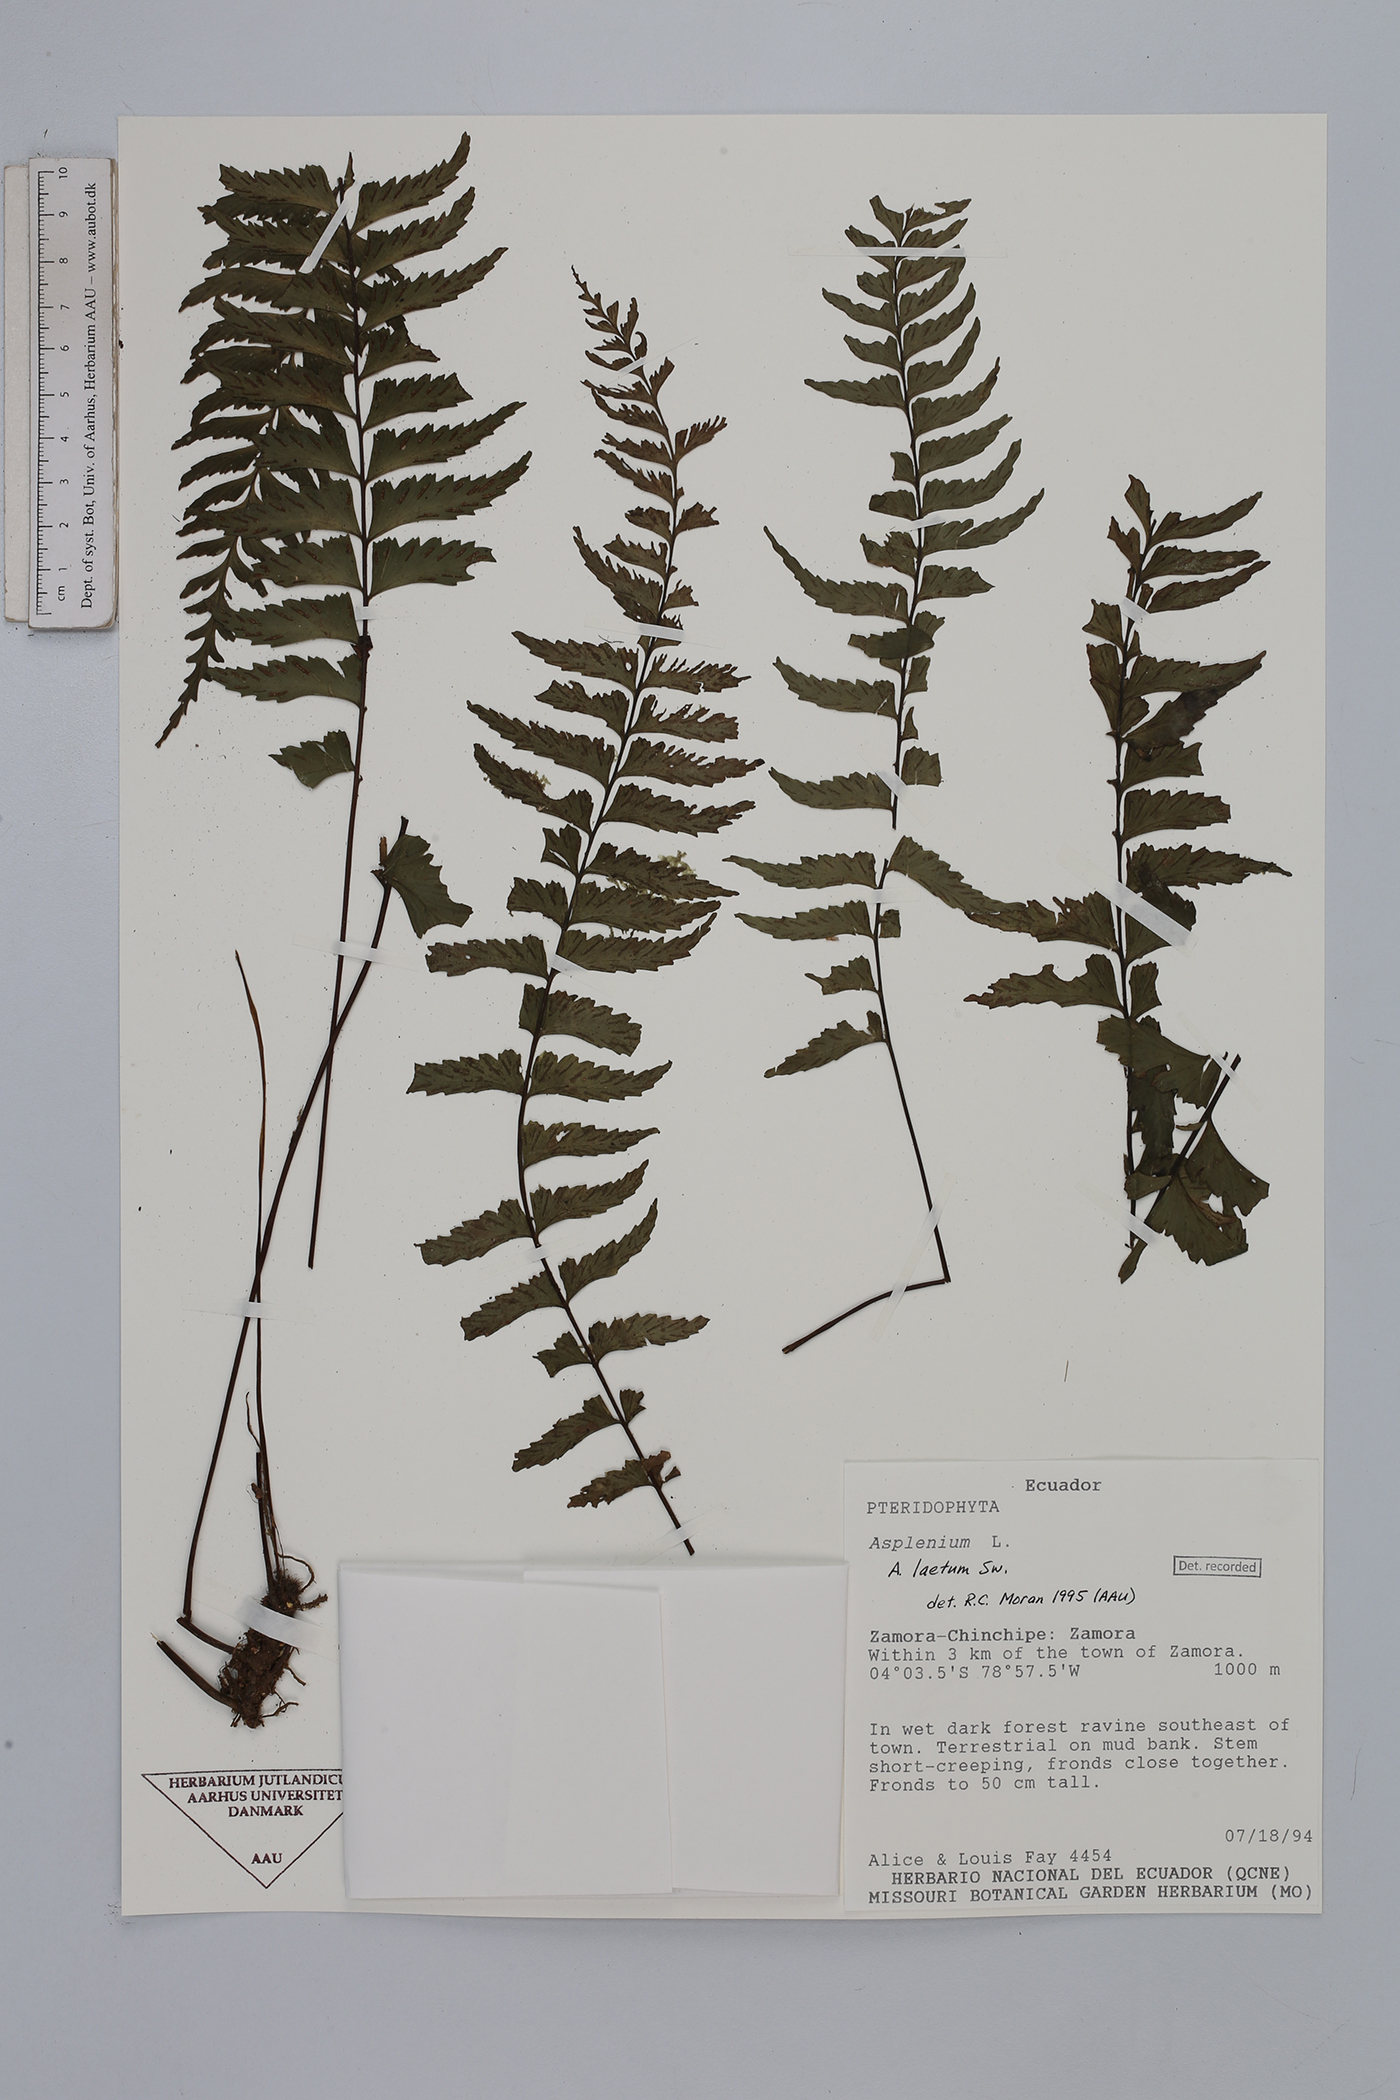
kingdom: Plantae
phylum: Tracheophyta
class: Polypodiopsida
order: Polypodiales
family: Aspleniaceae
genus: Hymenasplenium
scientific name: Hymenasplenium laetum
